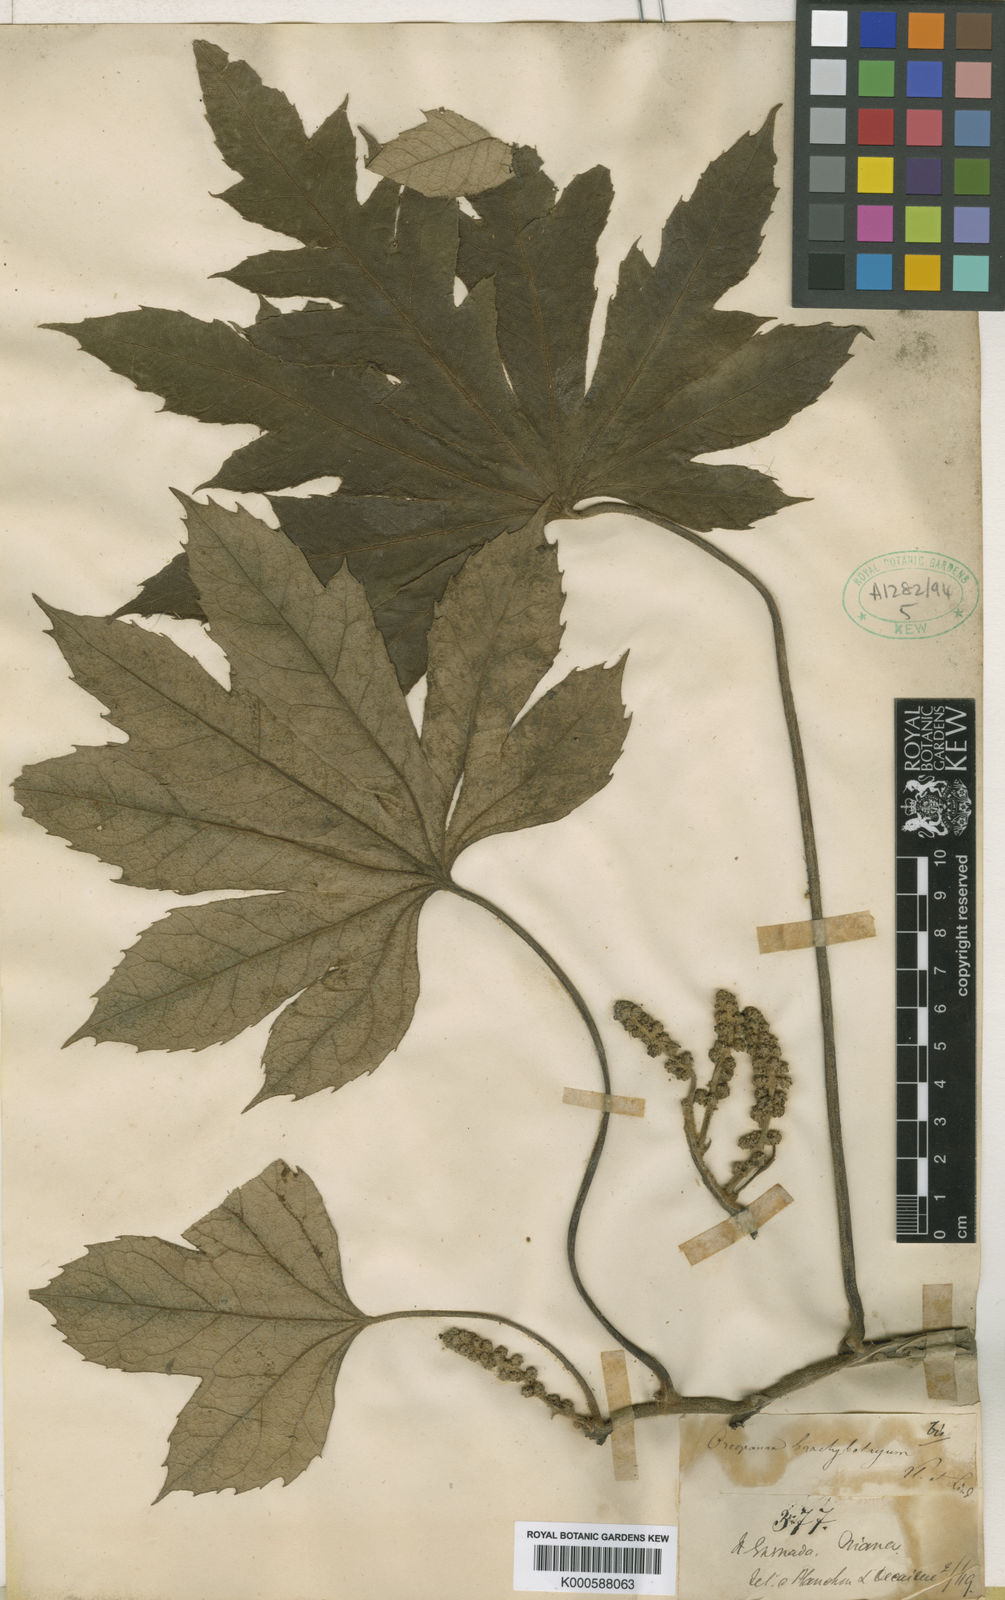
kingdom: Plantae
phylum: Tracheophyta
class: Magnoliopsida
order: Apiales
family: Araliaceae
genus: Oreopanax
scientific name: Oreopanax
